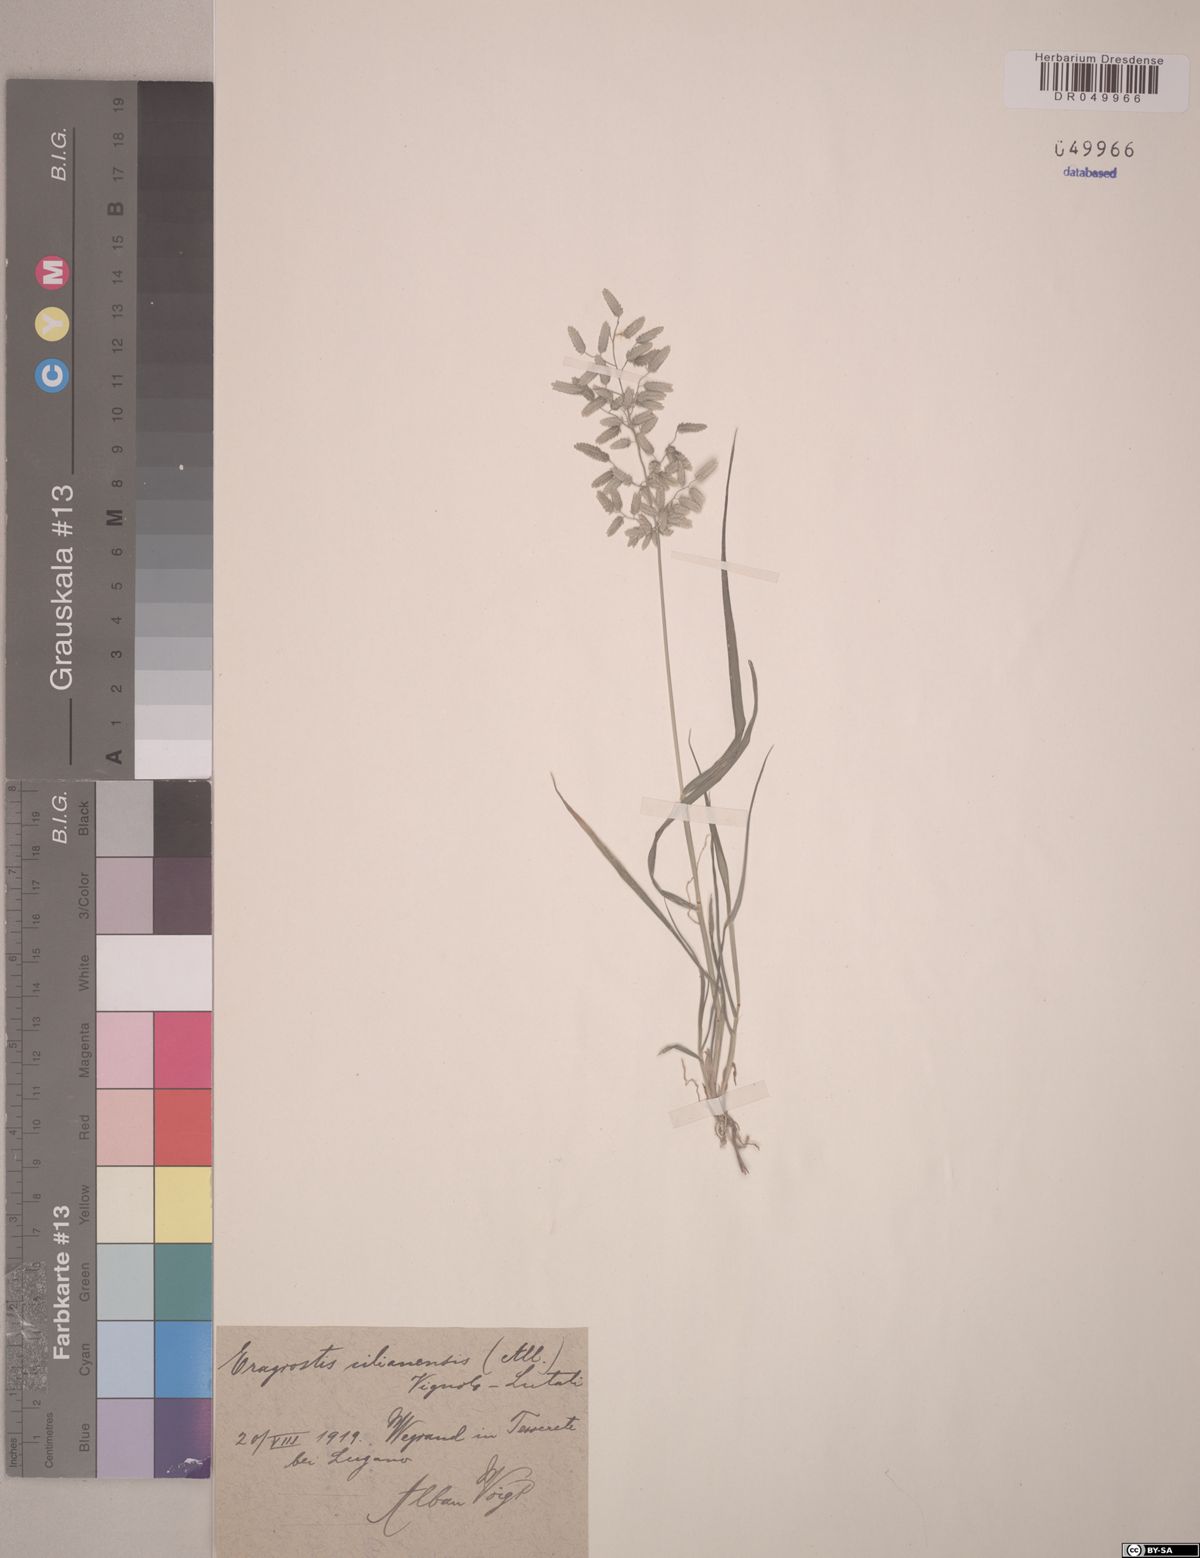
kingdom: Plantae
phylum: Tracheophyta
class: Liliopsida
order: Poales
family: Poaceae
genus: Eragrostis
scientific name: Eragrostis cilianensis
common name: Stinkgrass
